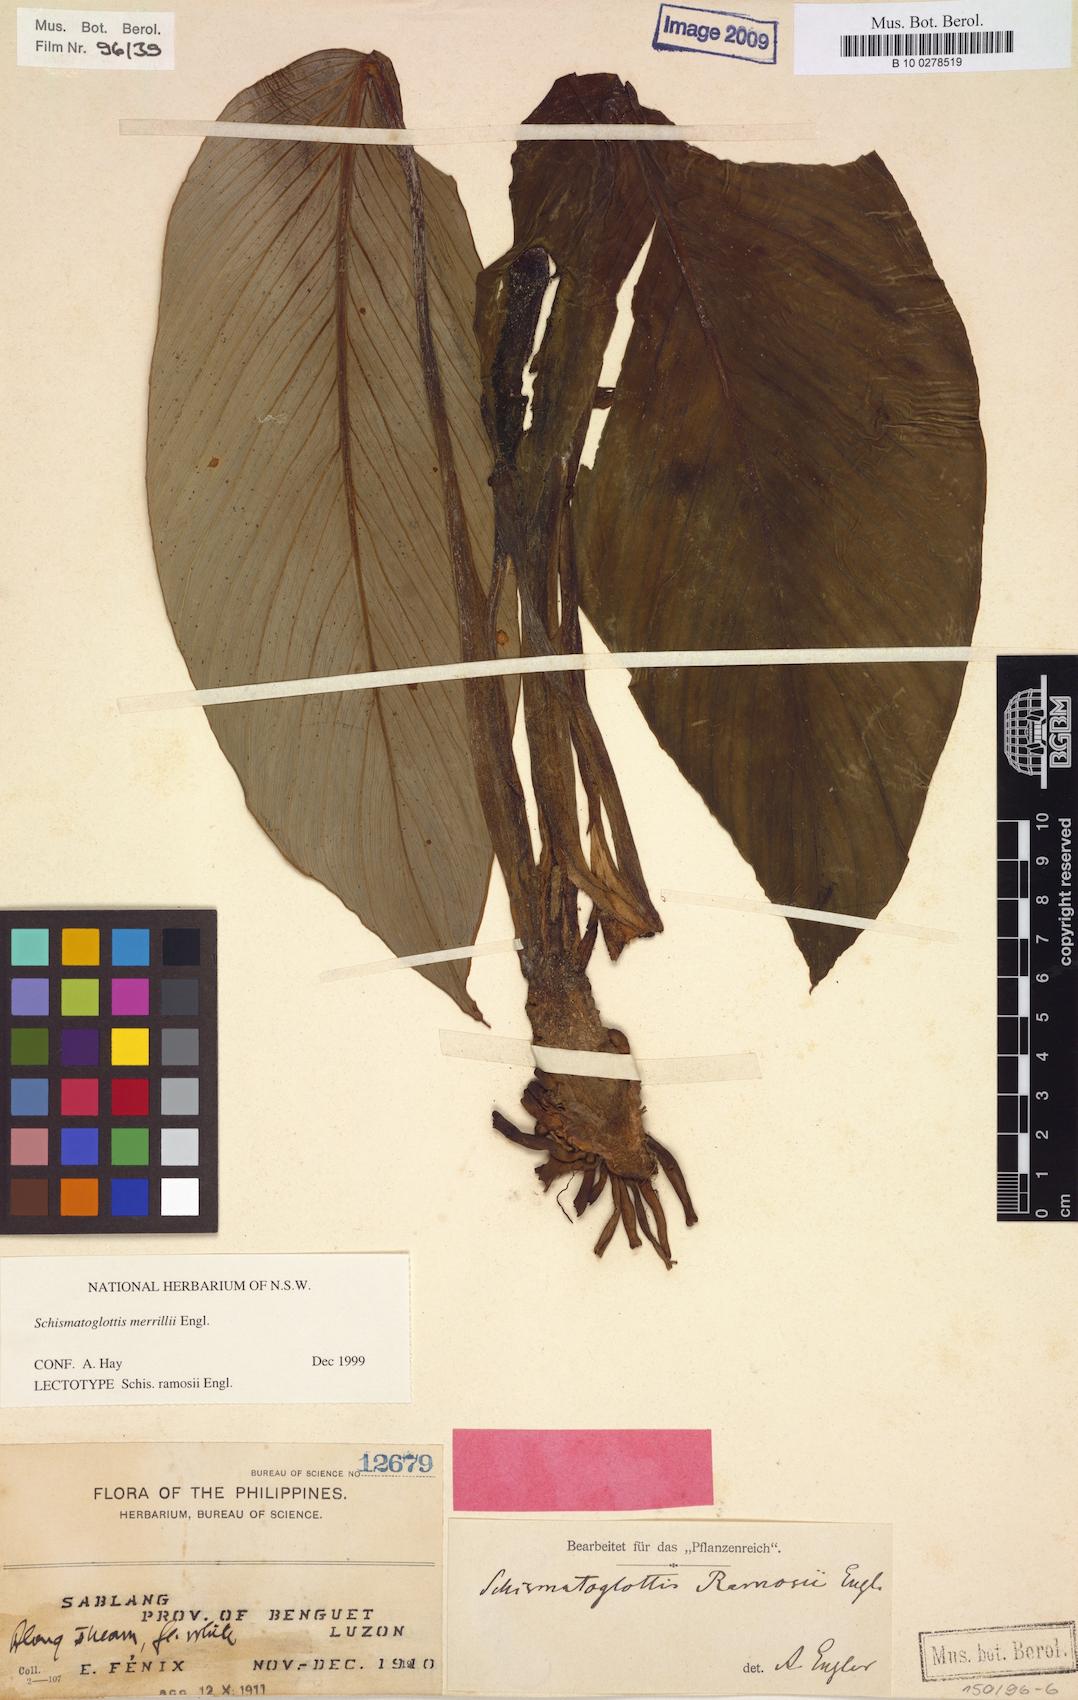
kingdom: Plantae
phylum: Tracheophyta
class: Liliopsida
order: Alismatales
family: Araceae
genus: Schismatoglottis
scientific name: Schismatoglottis merrillii
